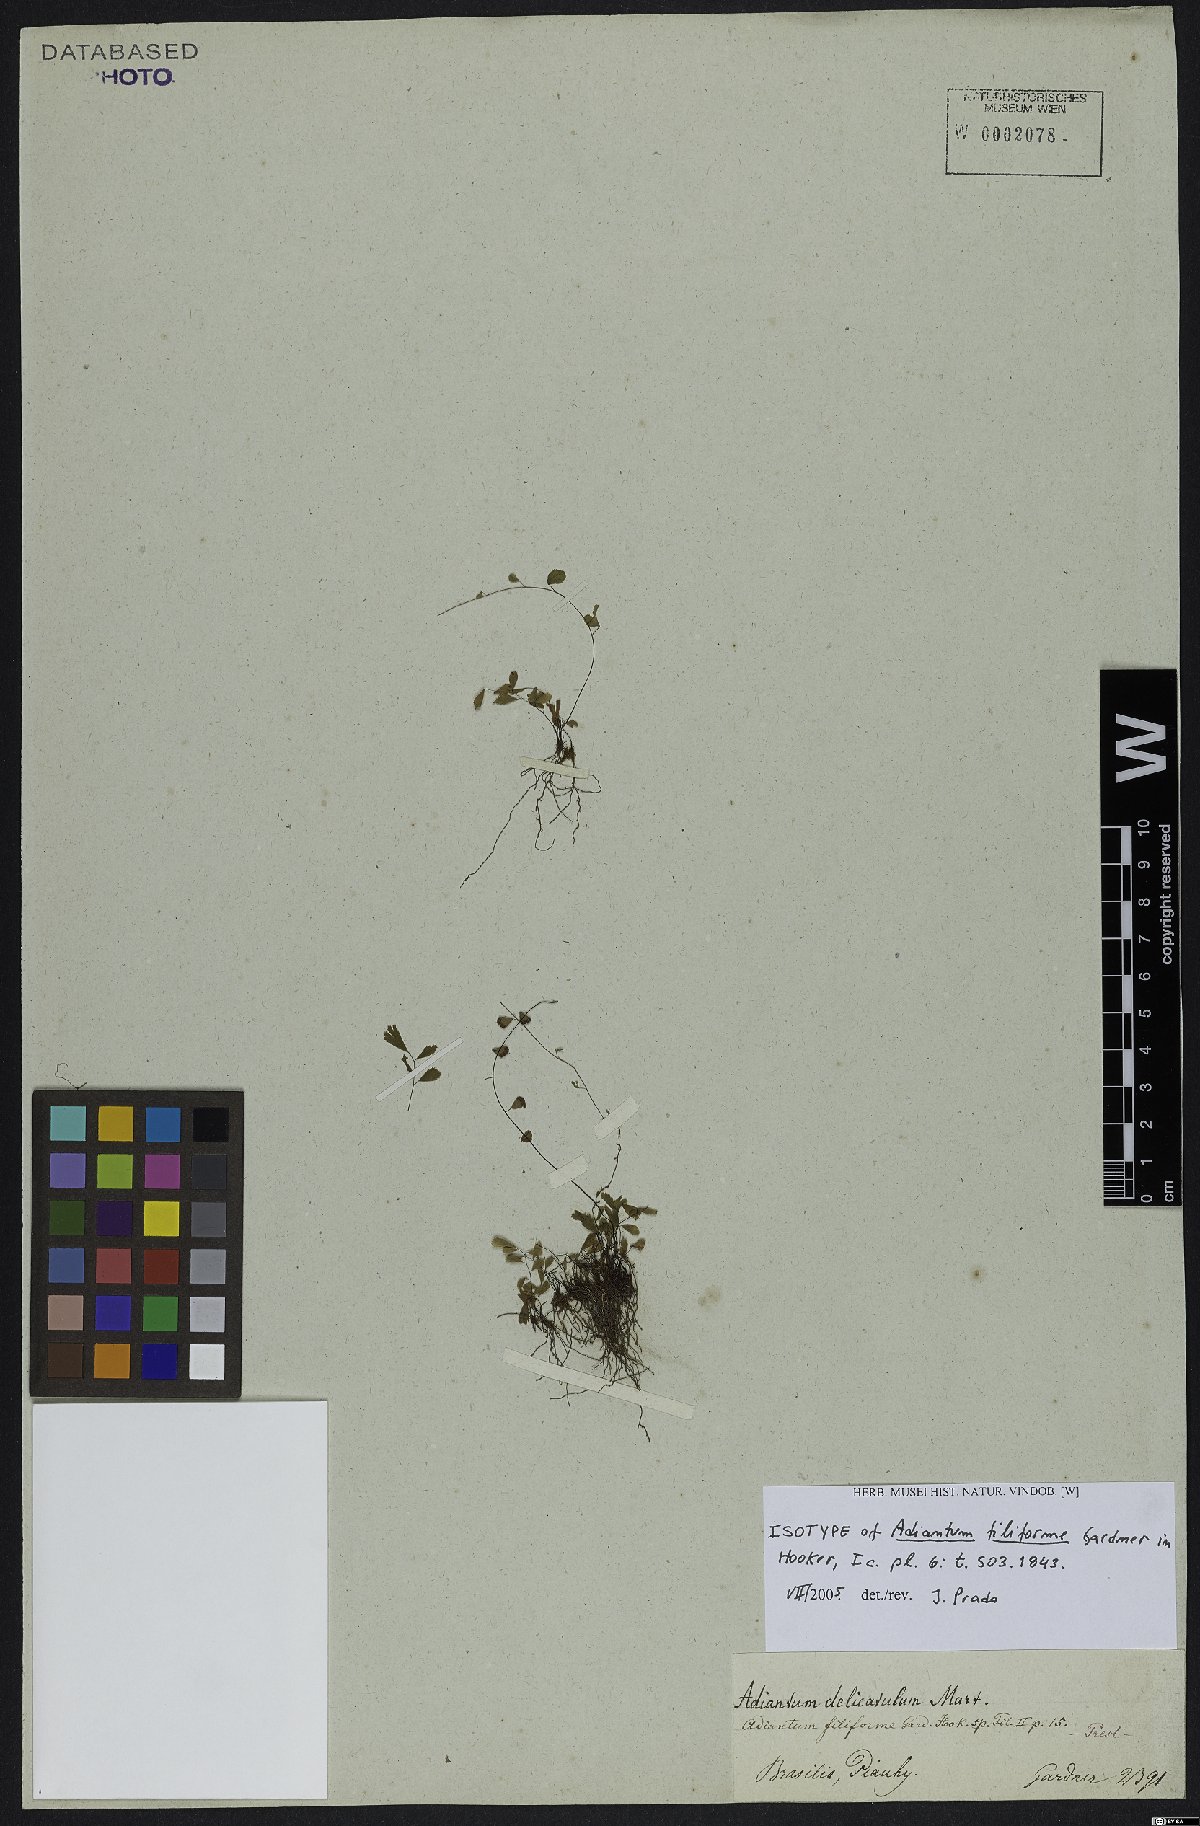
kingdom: Plantae
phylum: Tracheophyta
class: Polypodiopsida
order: Polypodiales
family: Pteridaceae
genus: Adiantum
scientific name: Adiantum filiforme
